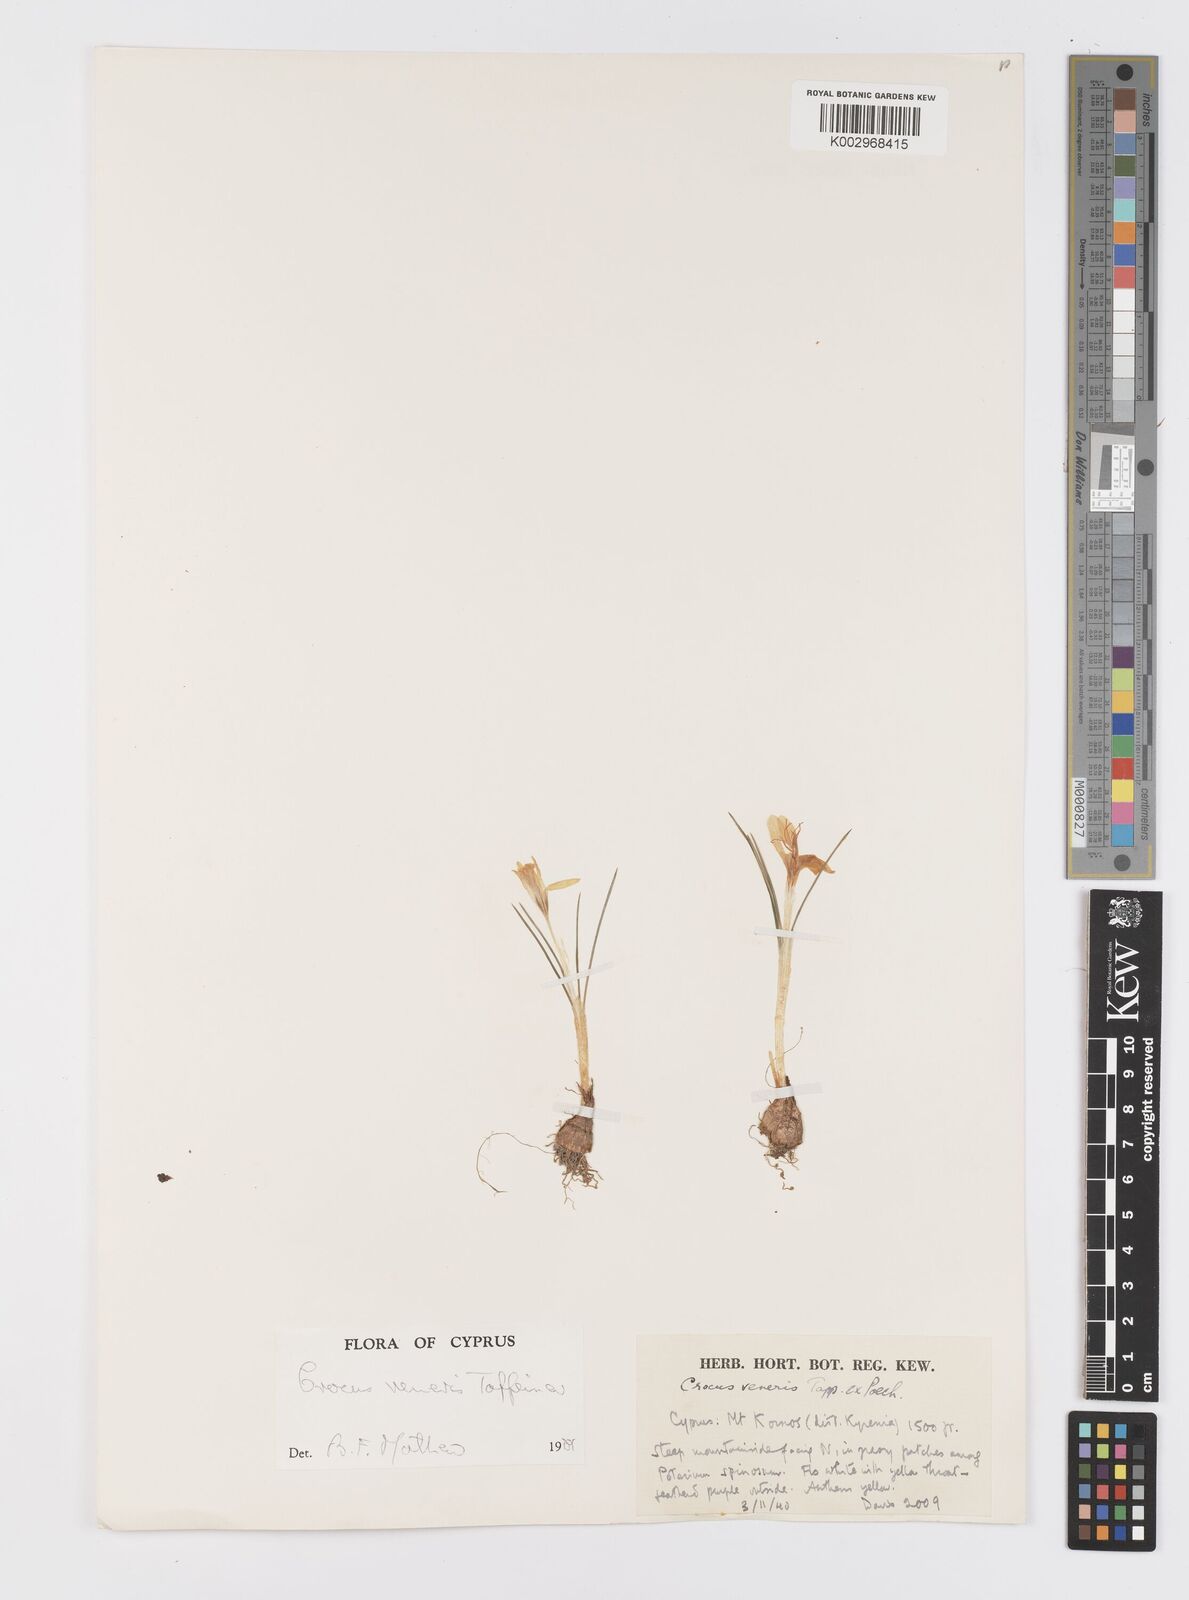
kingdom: Plantae
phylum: Tracheophyta
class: Liliopsida
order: Asparagales
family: Iridaceae
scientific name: Iridaceae
